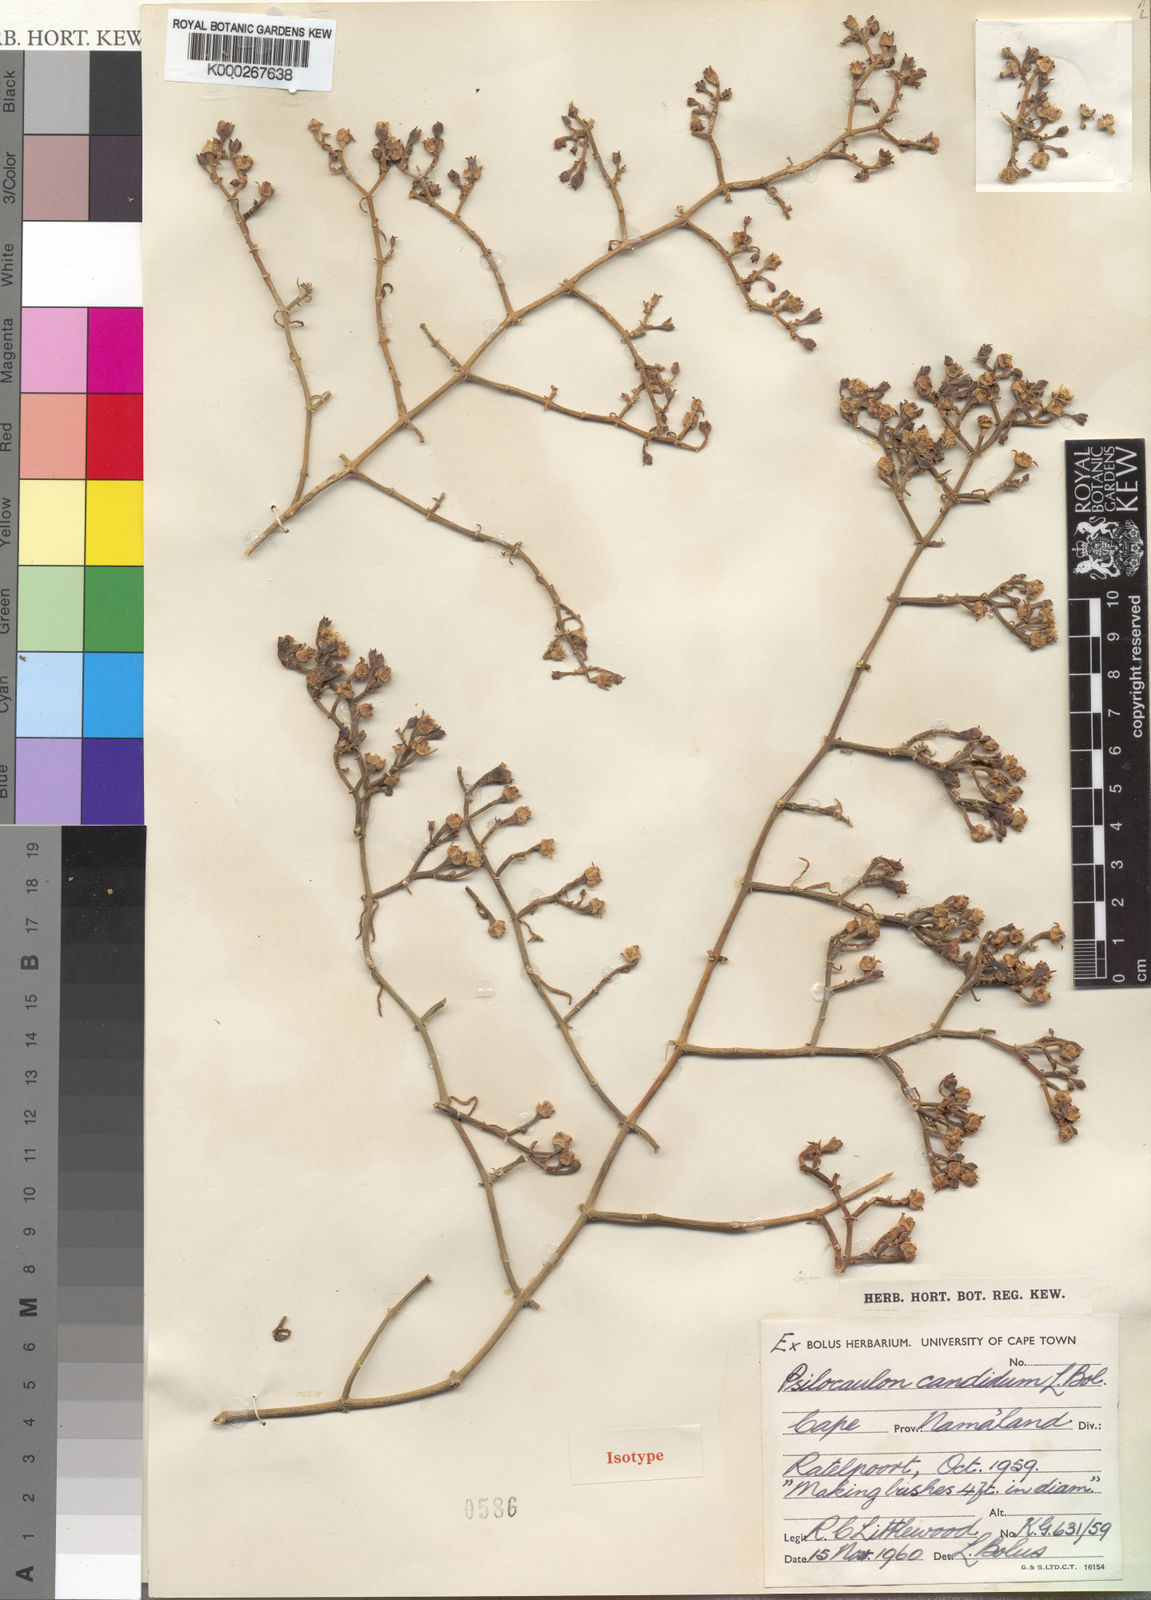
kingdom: Plantae
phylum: Tracheophyta
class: Magnoliopsida
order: Caryophyllales
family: Aizoaceae
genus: Mesembryanthemum
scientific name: Mesembryanthemum junceum
